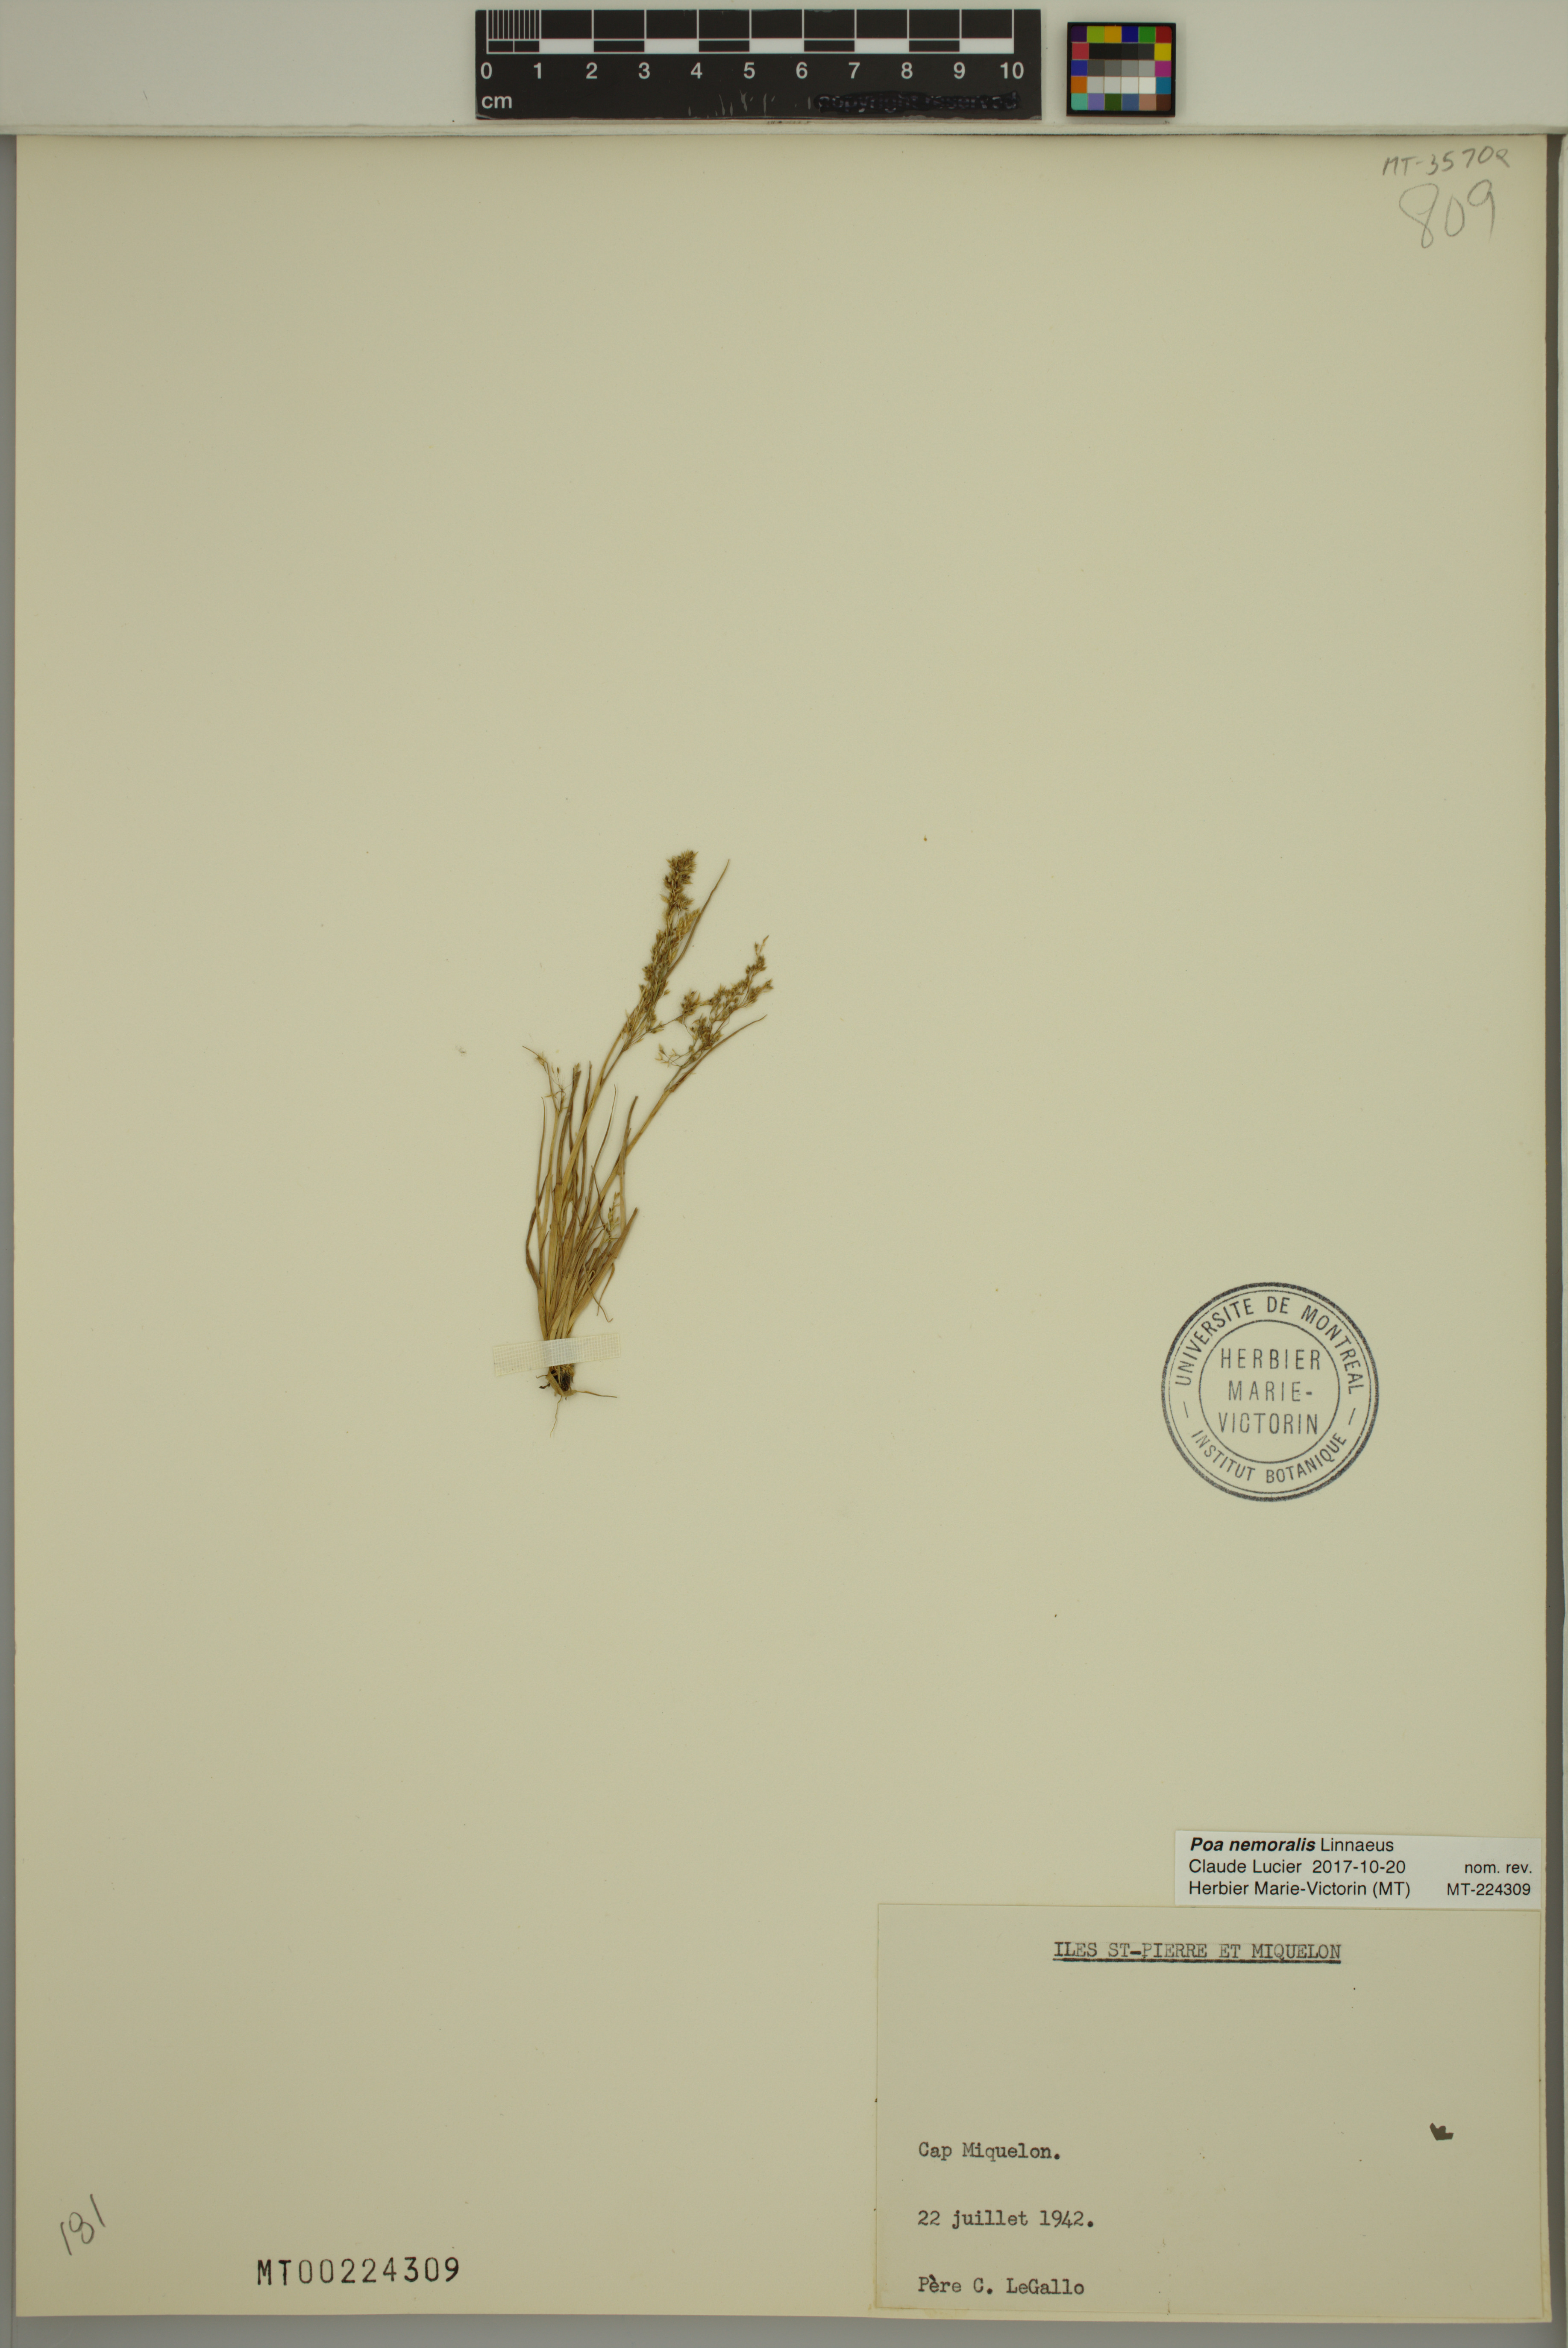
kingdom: Plantae
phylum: Tracheophyta
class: Liliopsida
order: Poales
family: Poaceae
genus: Poa
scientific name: Poa nemoralis
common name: Wood bluegrass
